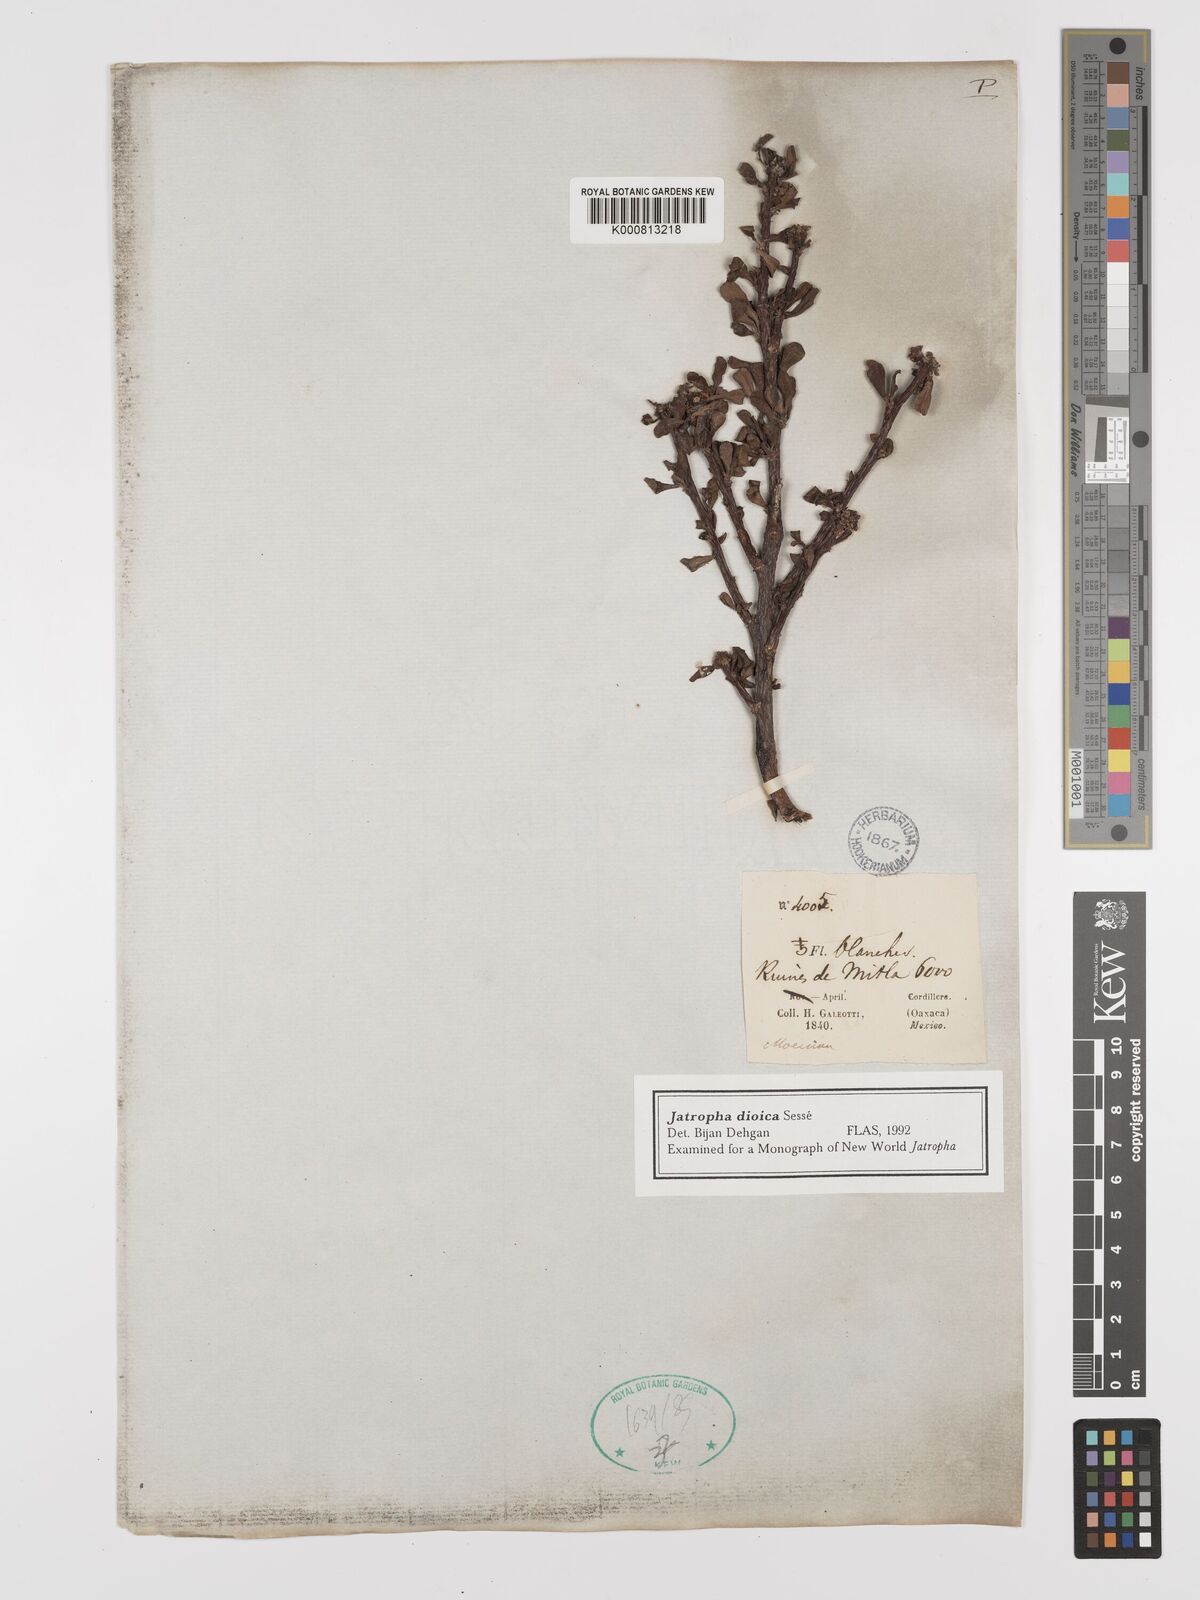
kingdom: Plantae
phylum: Tracheophyta
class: Magnoliopsida
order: Malpighiales
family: Euphorbiaceae
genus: Jatropha
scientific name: Jatropha
